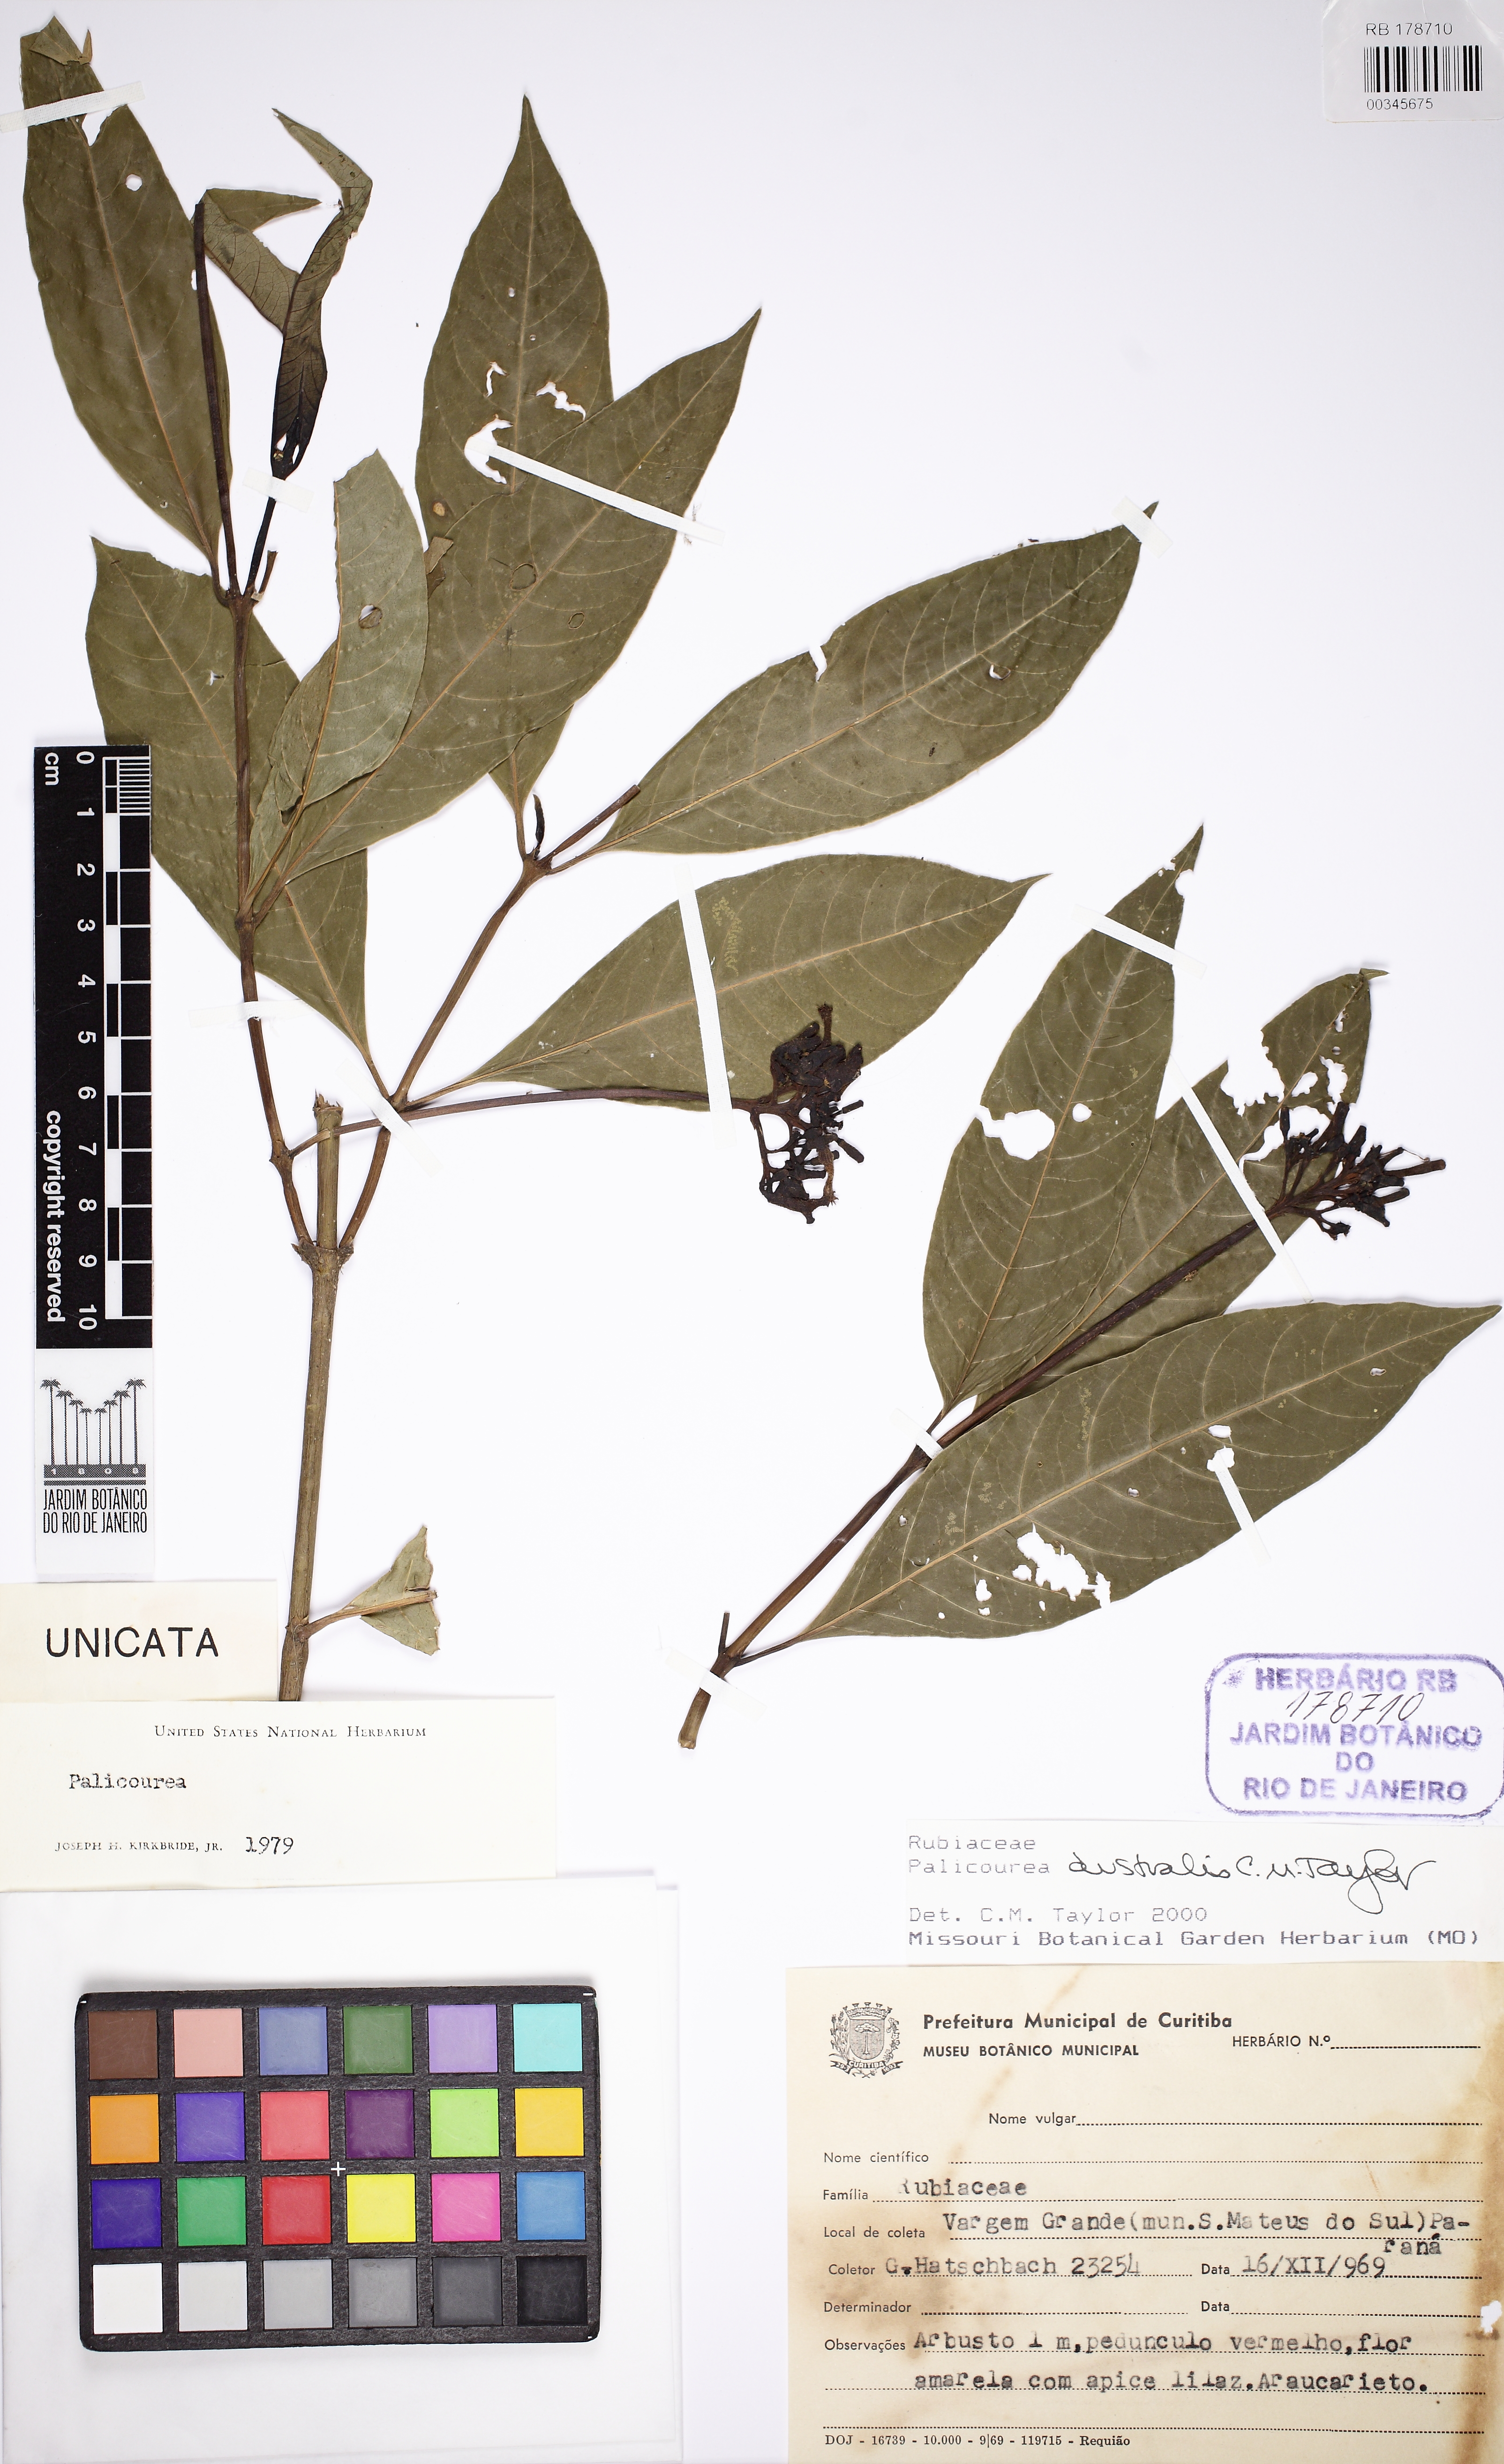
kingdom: Plantae
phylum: Tracheophyta
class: Magnoliopsida
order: Gentianales
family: Rubiaceae
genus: Palicourea
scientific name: Palicourea australis
